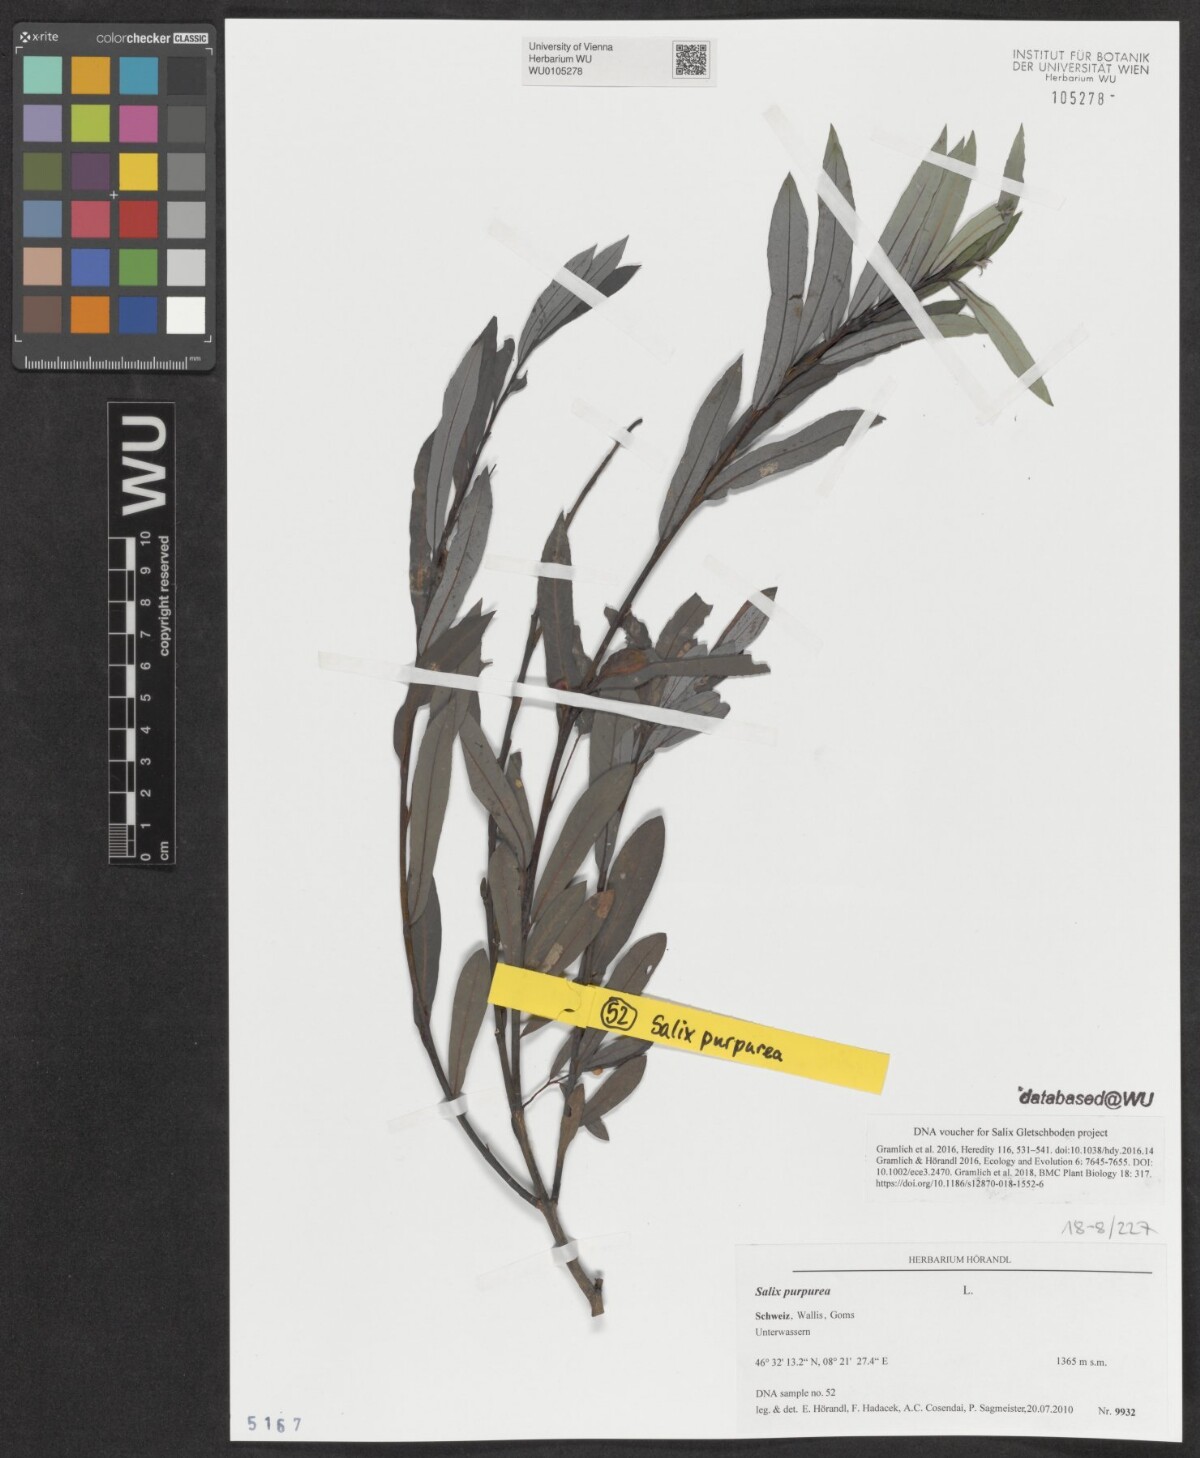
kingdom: Plantae
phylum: Tracheophyta
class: Magnoliopsida
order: Malpighiales
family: Salicaceae
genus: Salix
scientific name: Salix purpurea
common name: Purple willow
